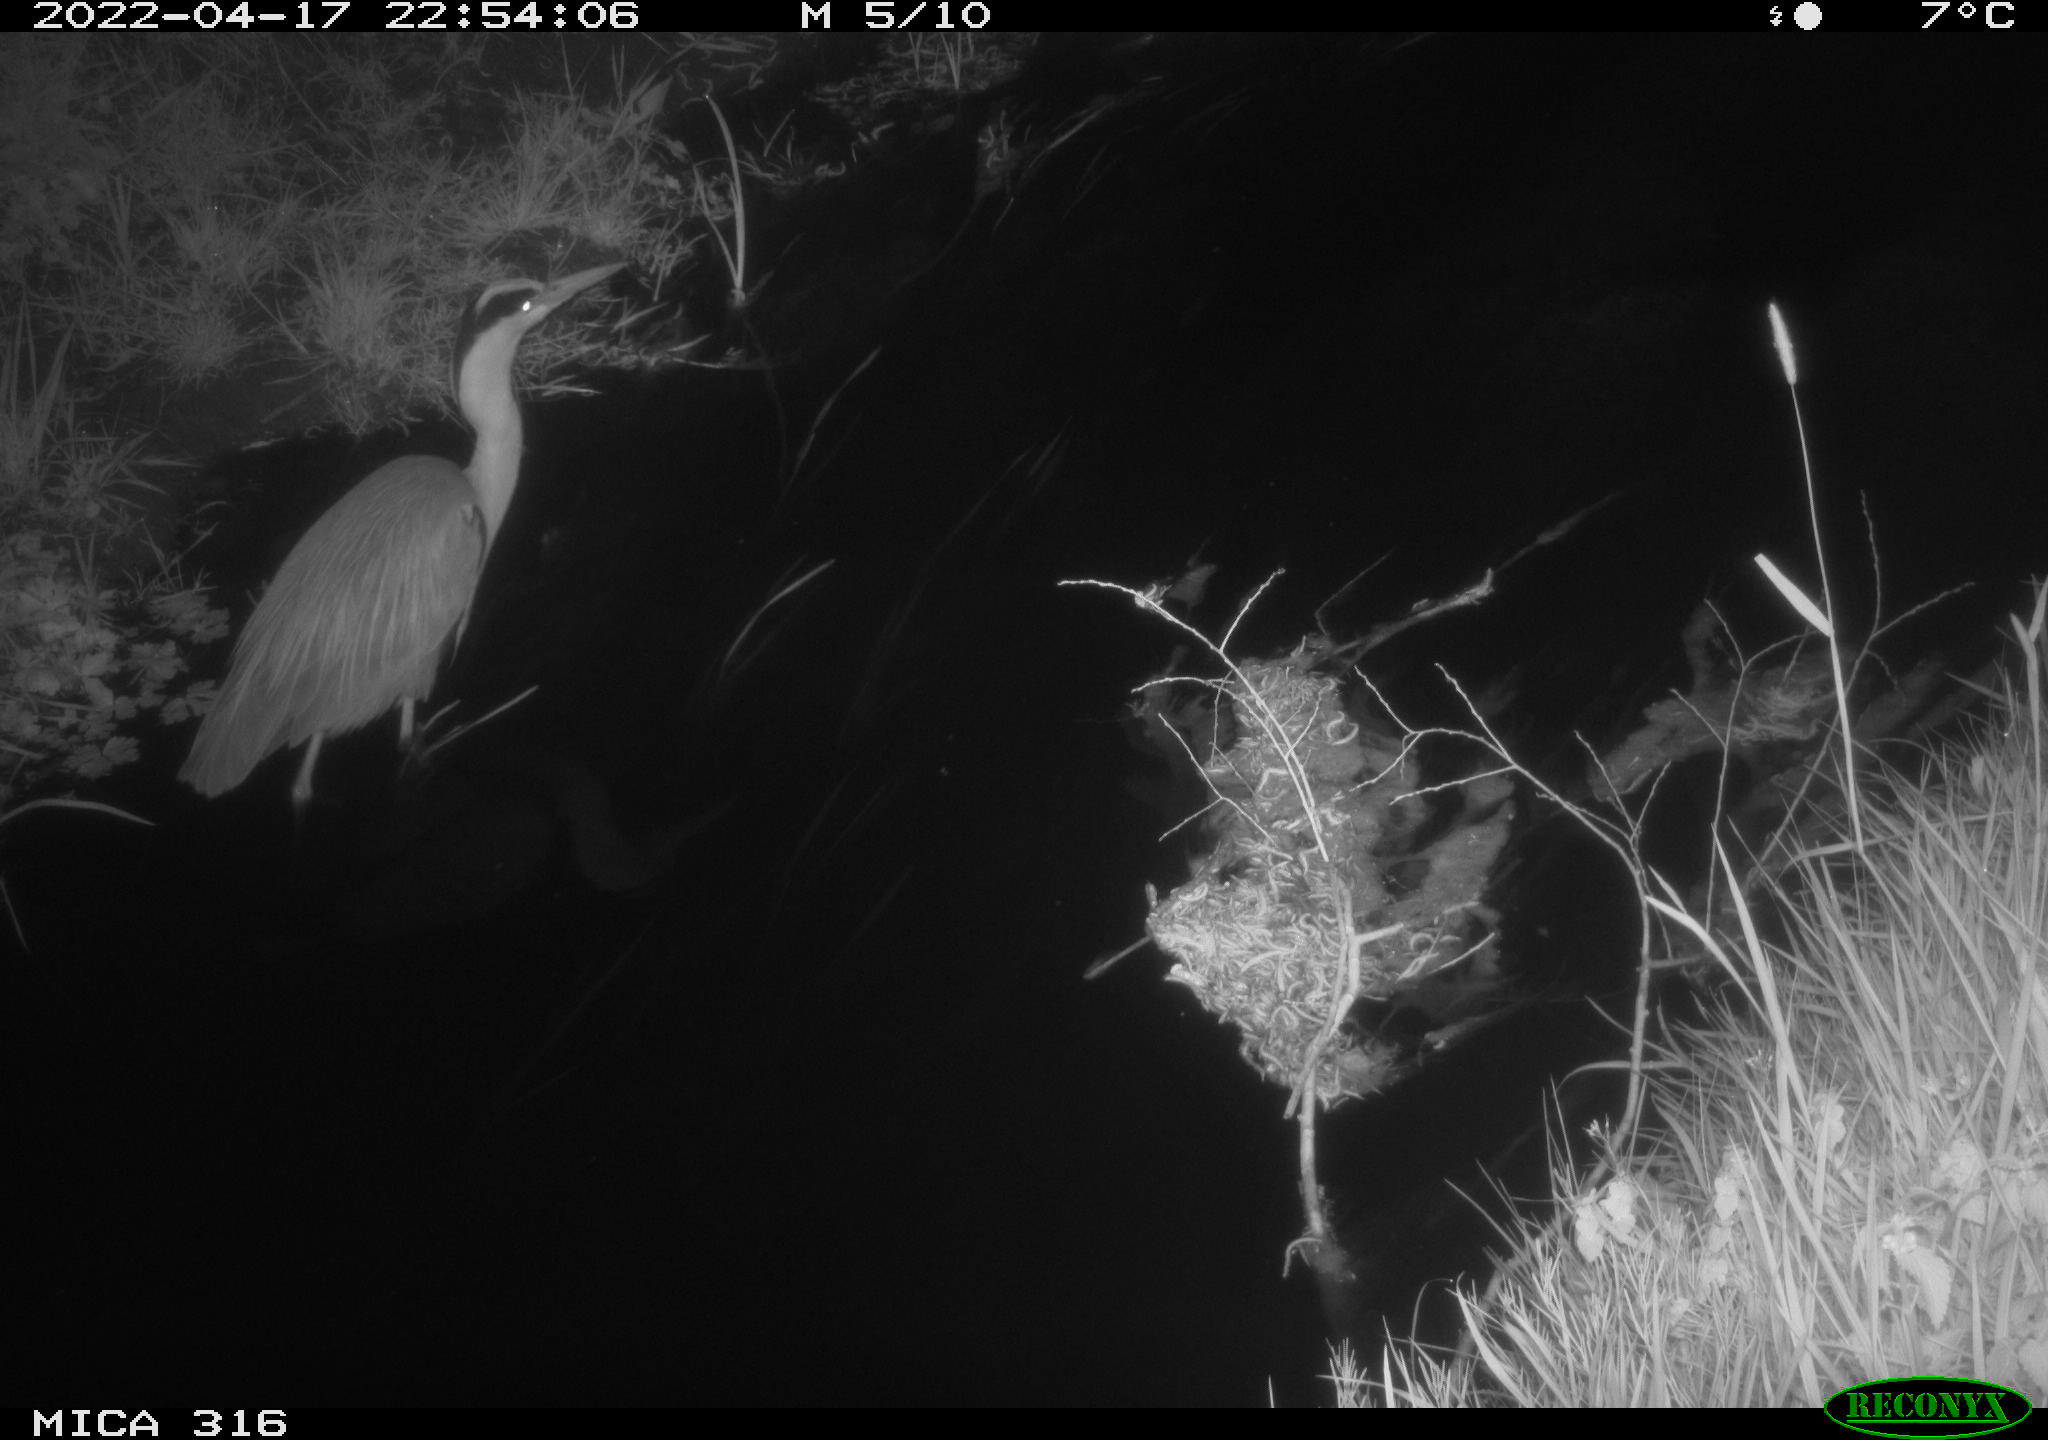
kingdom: Animalia
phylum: Chordata
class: Aves
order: Pelecaniformes
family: Ardeidae
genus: Ardea
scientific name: Ardea
